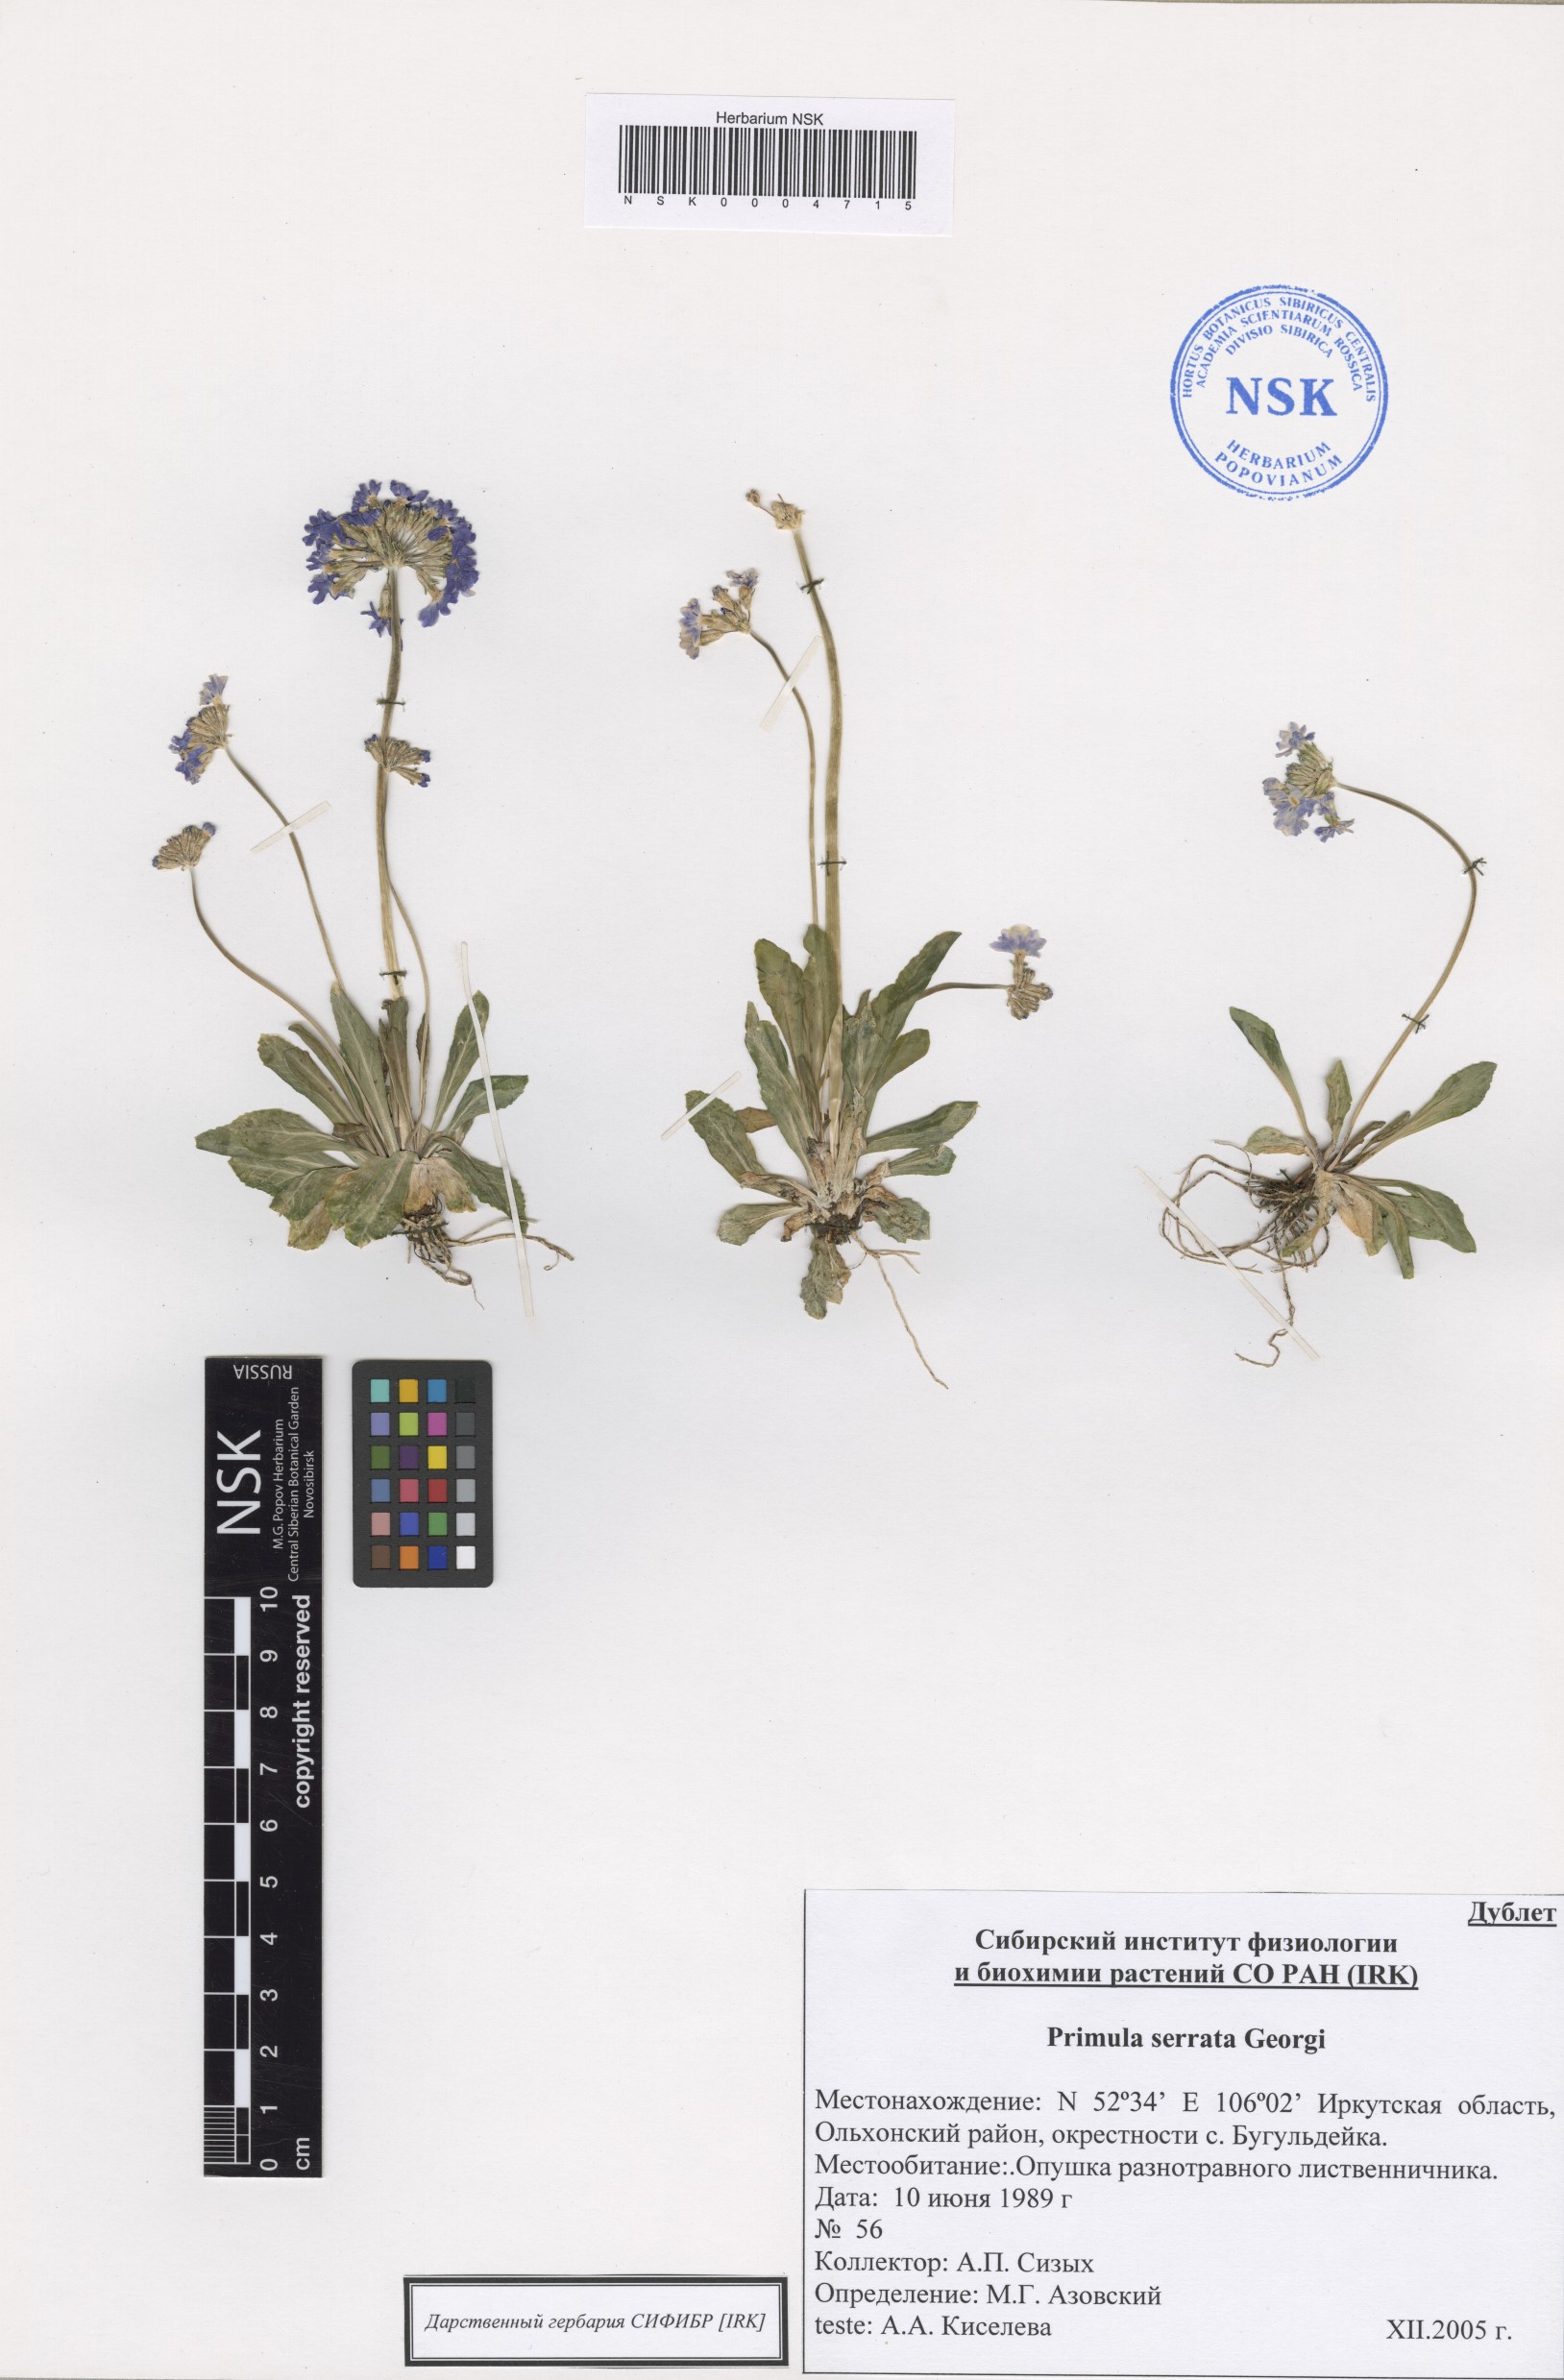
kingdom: Plantae
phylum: Tracheophyta
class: Magnoliopsida
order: Ericales
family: Primulaceae
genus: Primula
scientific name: Primula serrata
